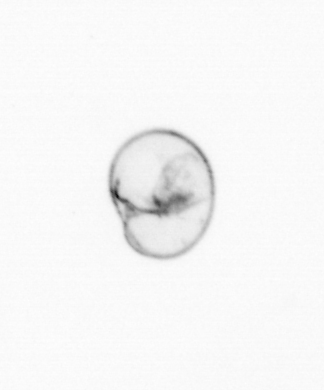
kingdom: Chromista
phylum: Myzozoa
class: Dinophyceae
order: Noctilucales
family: Noctilucaceae
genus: Noctiluca
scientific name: Noctiluca scintillans
